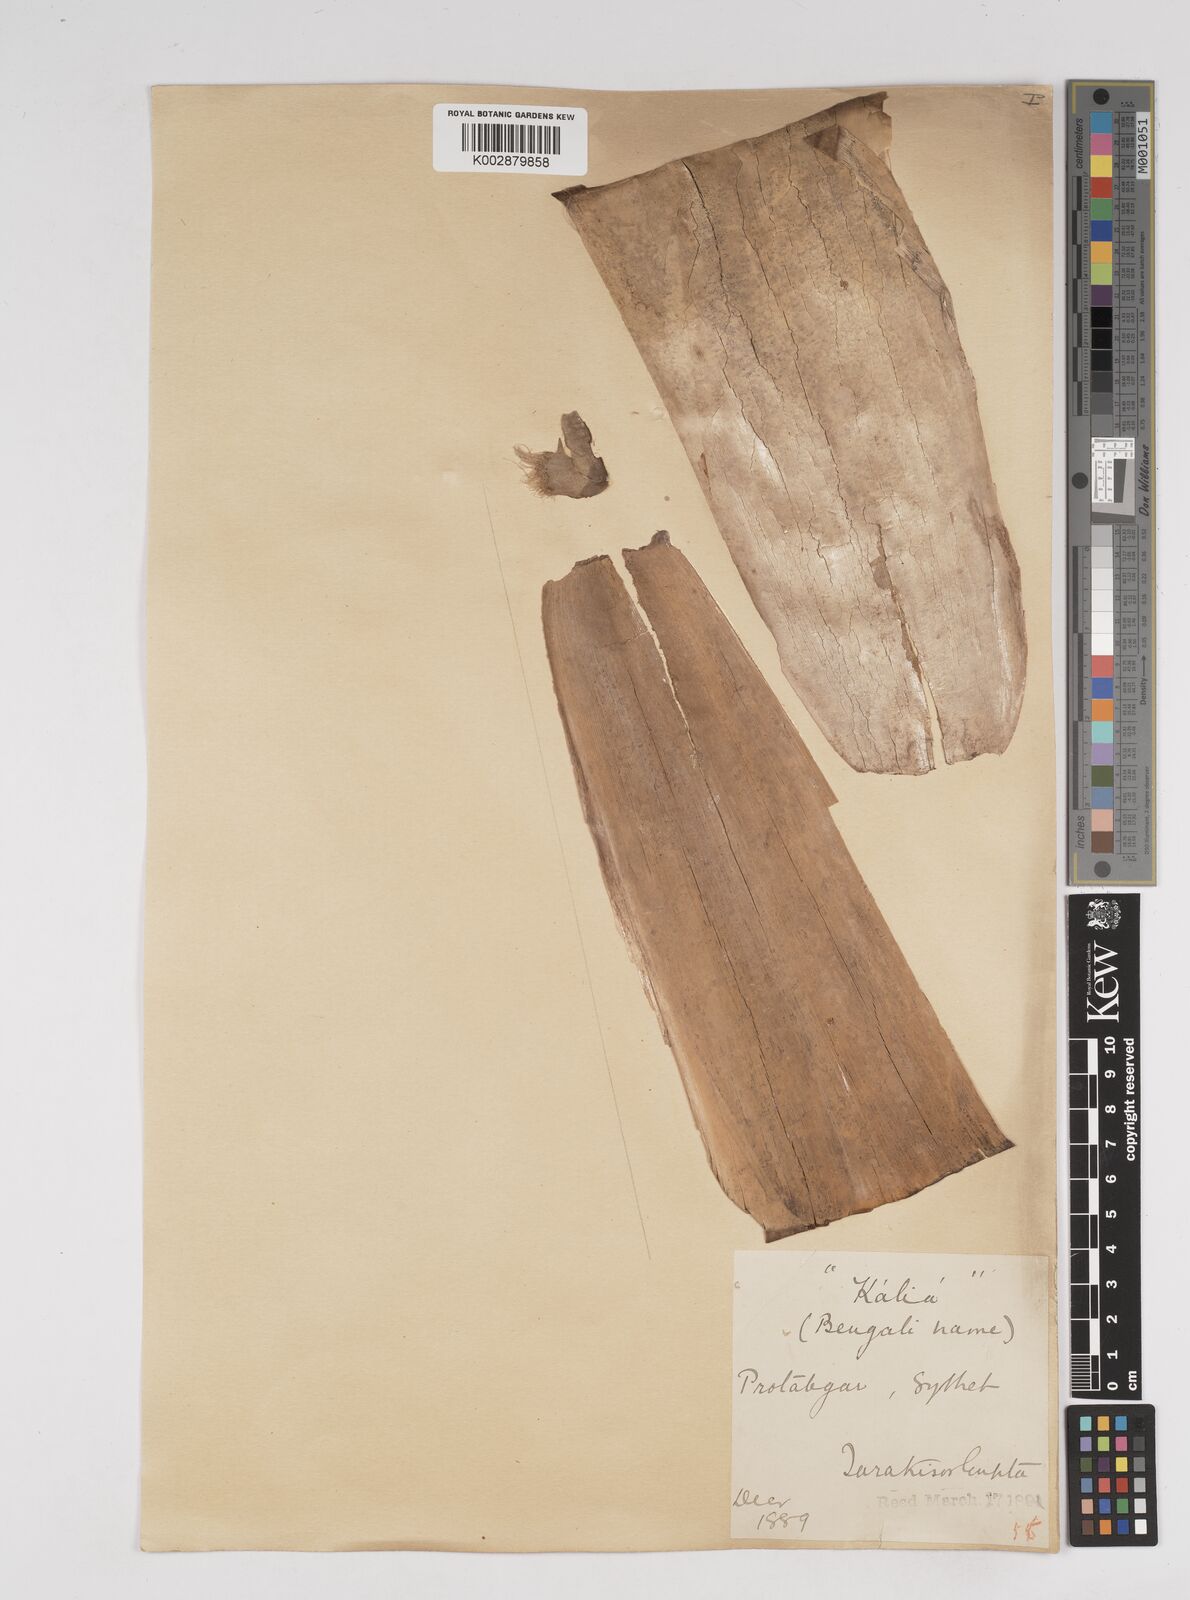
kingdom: Plantae
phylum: Tracheophyta
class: Liliopsida
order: Poales
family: Poaceae
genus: Gigantochloa
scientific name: Gigantochloa
